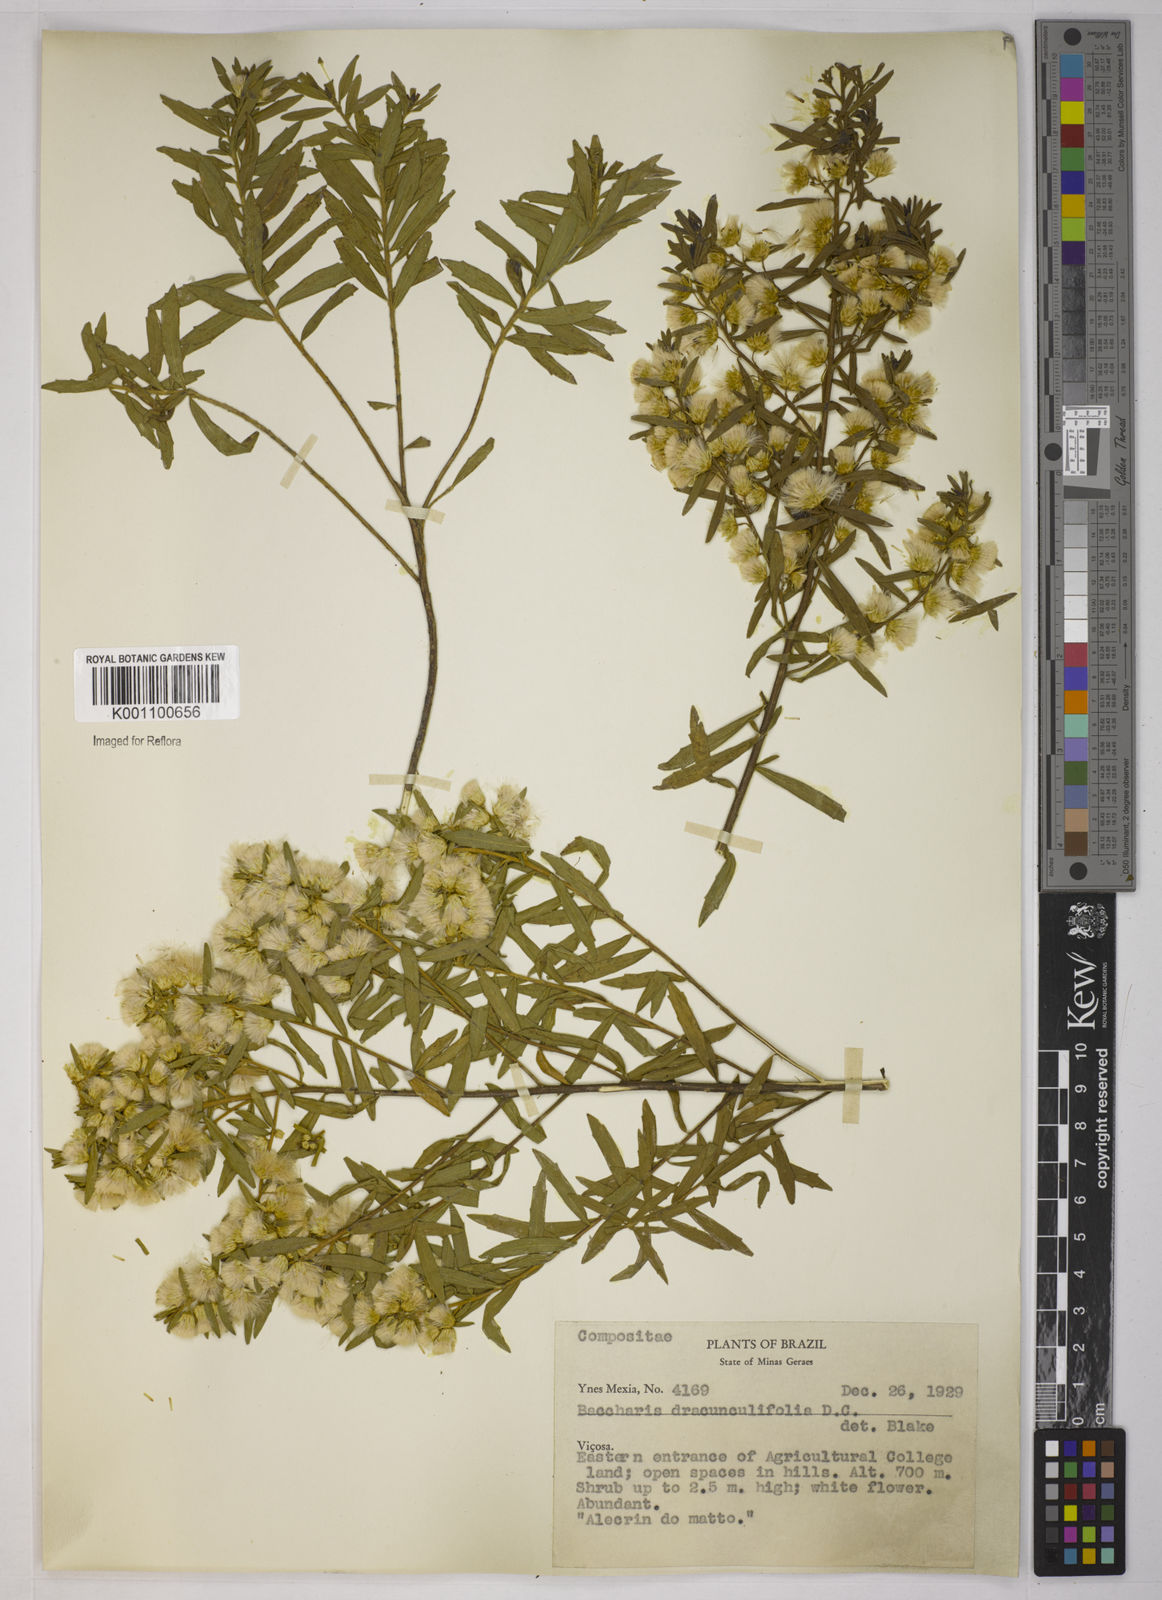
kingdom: Plantae
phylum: Tracheophyta
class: Magnoliopsida
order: Asterales
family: Asteraceae
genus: Baccharis
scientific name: Baccharis dracunculifolia
